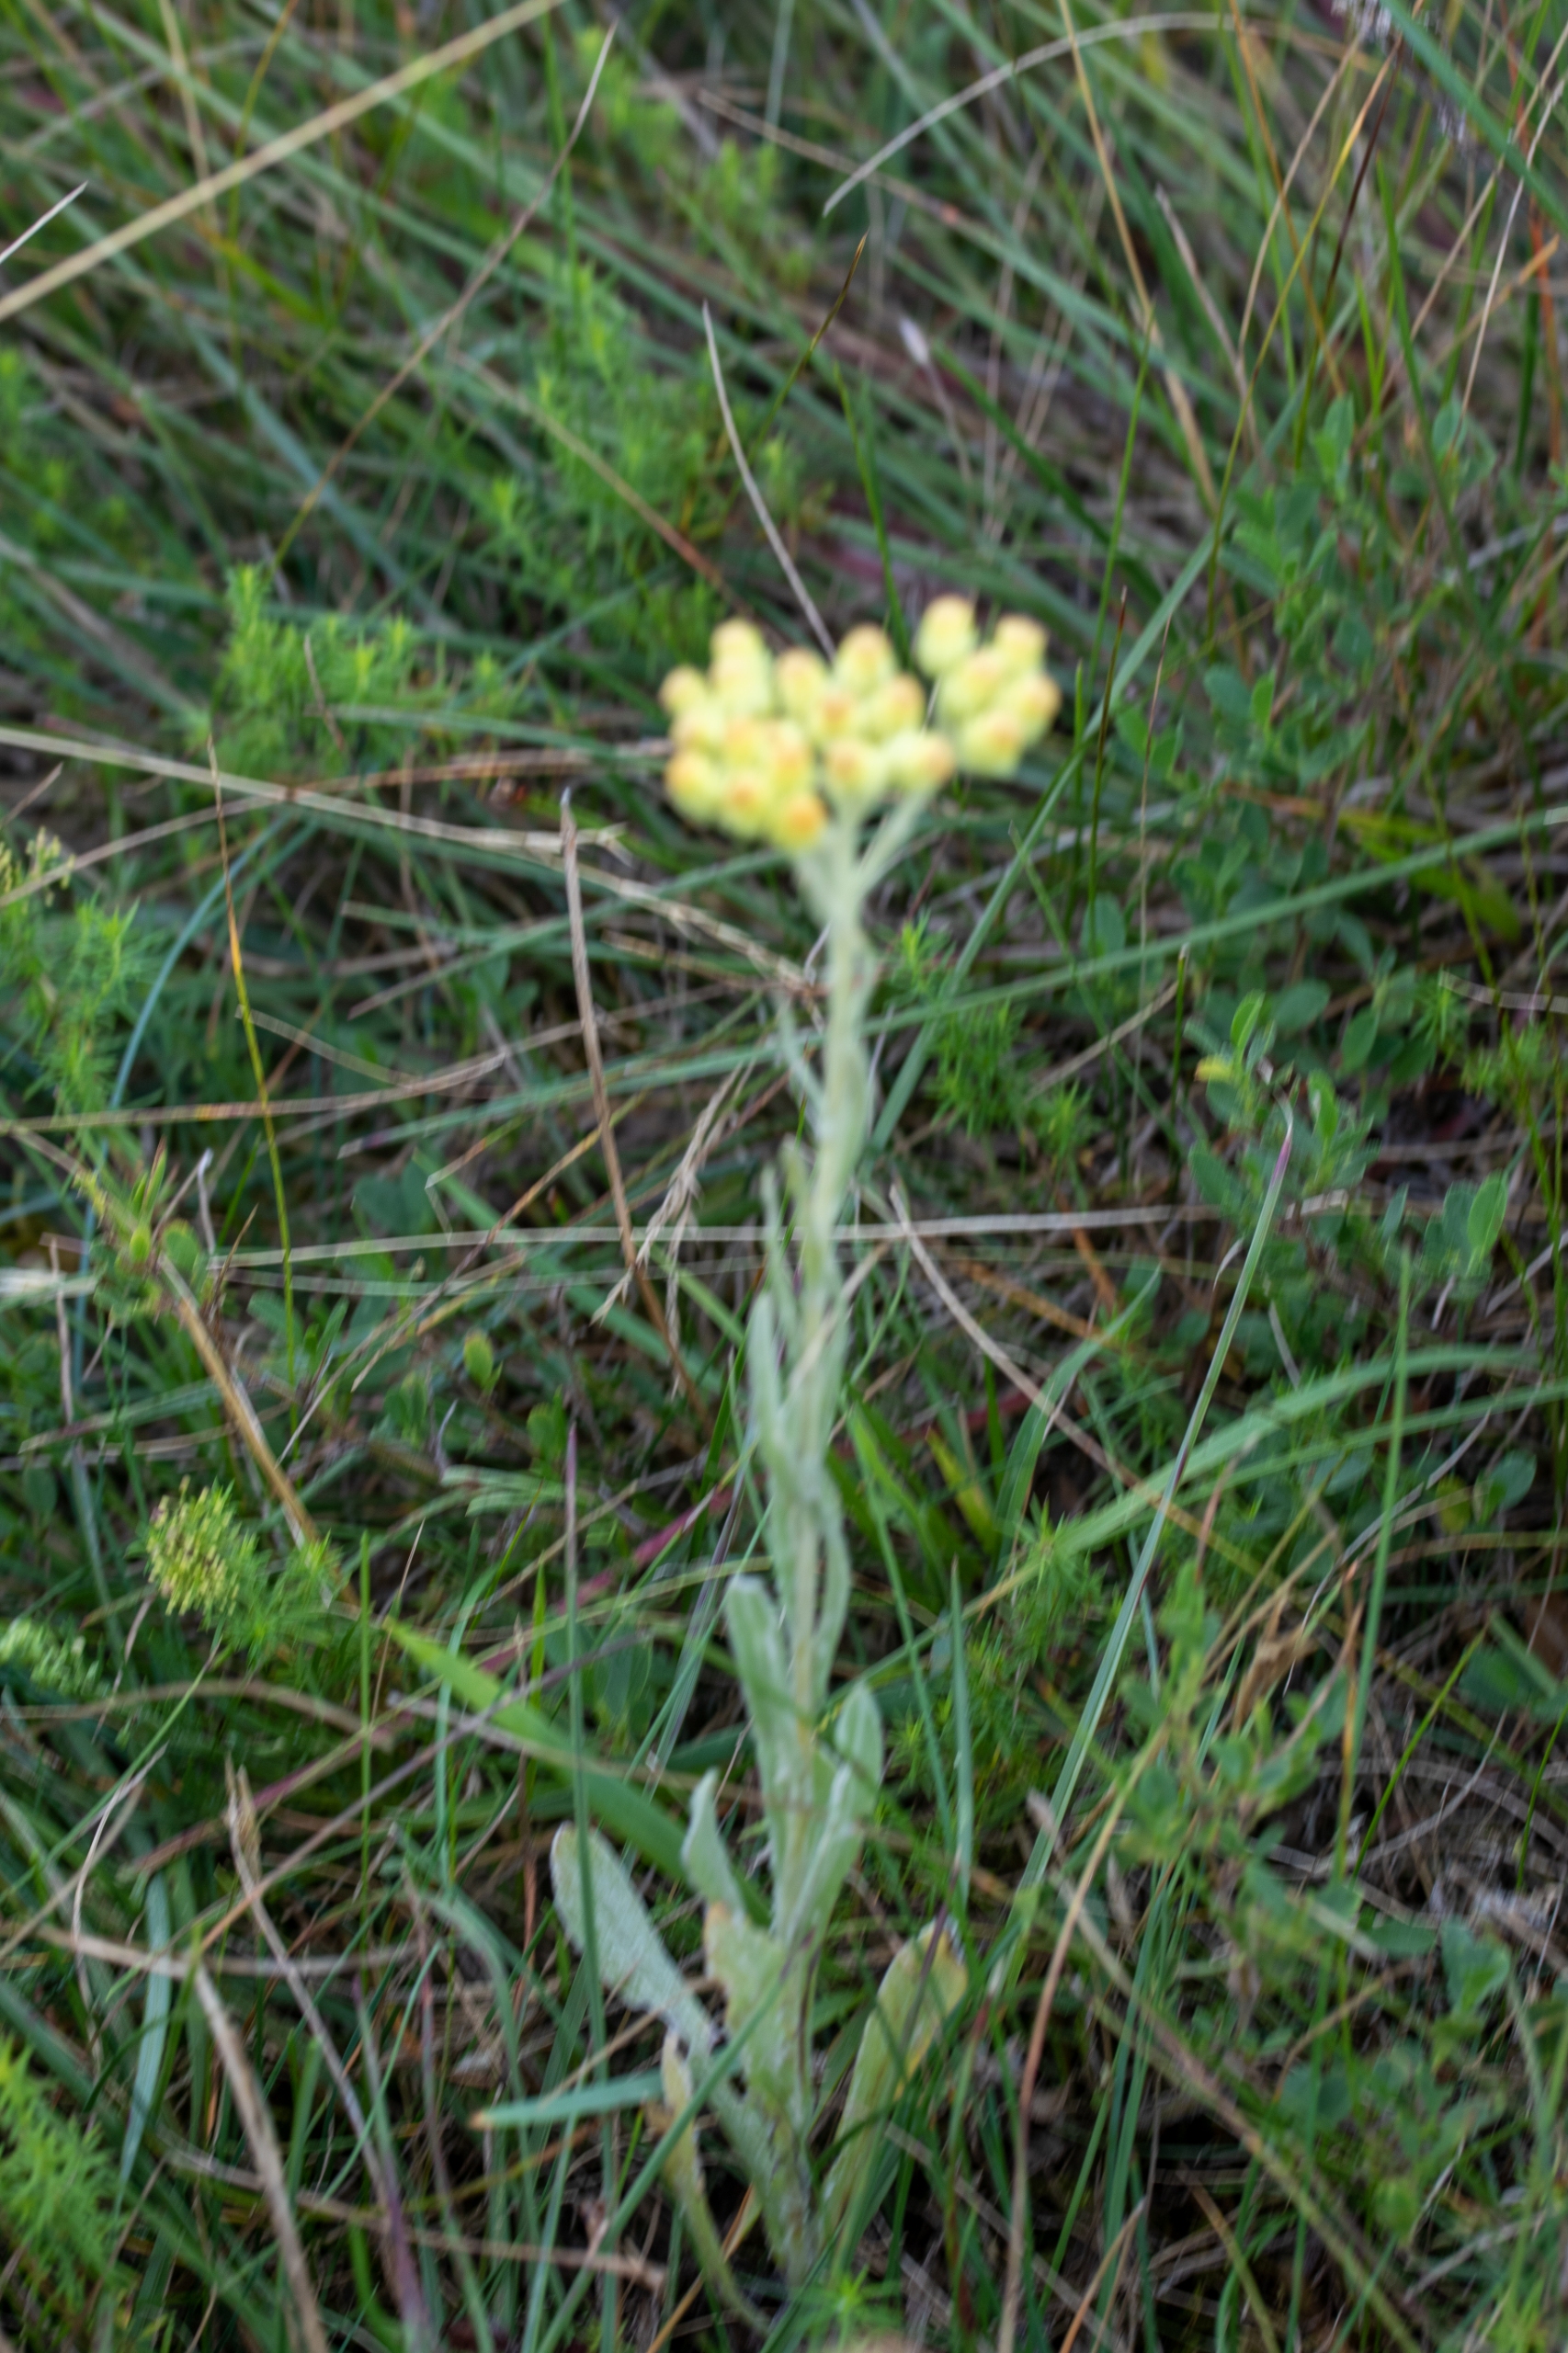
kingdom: Plantae
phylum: Tracheophyta
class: Magnoliopsida
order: Asterales
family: Asteraceae
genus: Helichrysum
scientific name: Helichrysum arenarium
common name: Gul evighedsblomst
